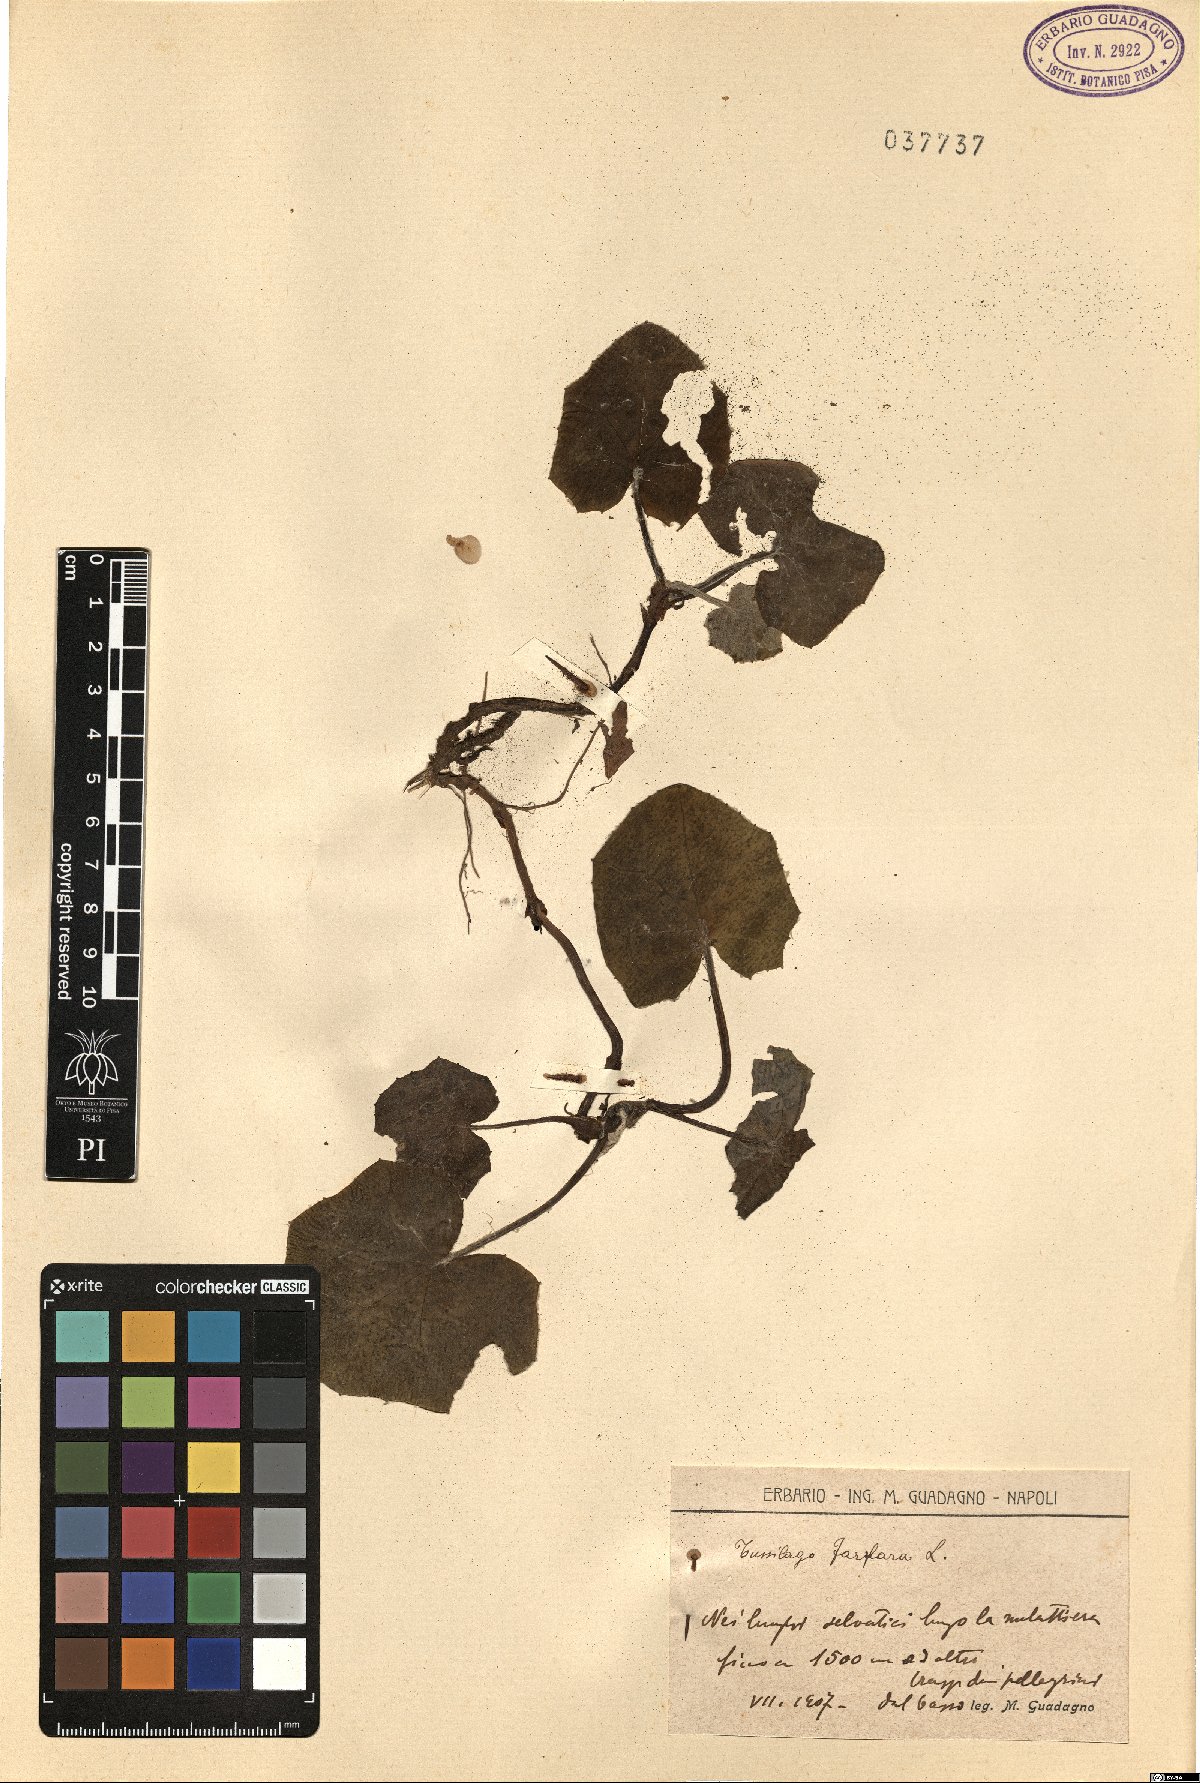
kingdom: Plantae
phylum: Tracheophyta
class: Magnoliopsida
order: Asterales
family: Asteraceae
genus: Tussilago
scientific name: Tussilago farfara
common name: Coltsfoot
